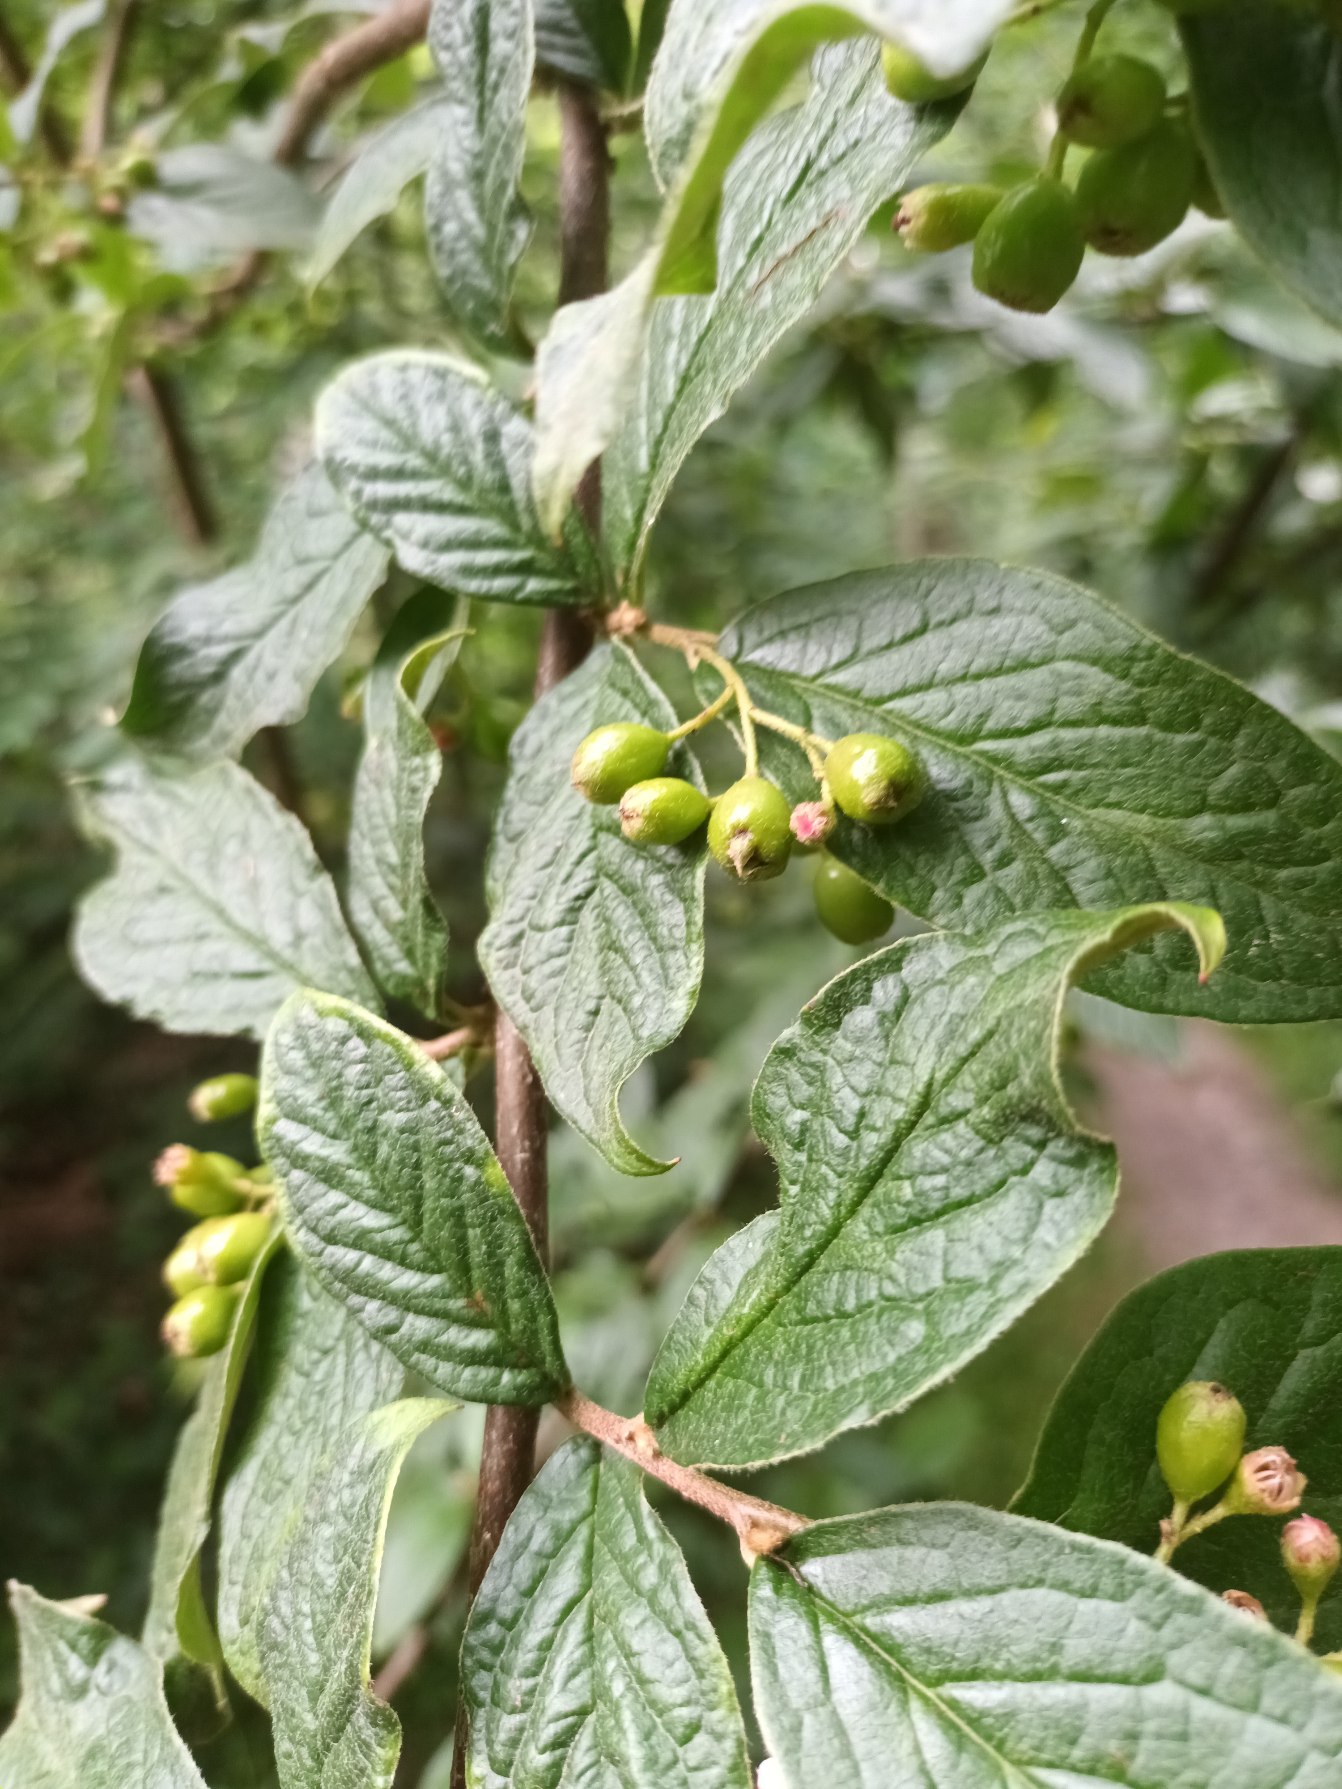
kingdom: Plantae
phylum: Tracheophyta
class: Magnoliopsida
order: Rosales
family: Rosaceae
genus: Cotoneaster
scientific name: Cotoneaster bullatus
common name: Storbladet dværgmispel
